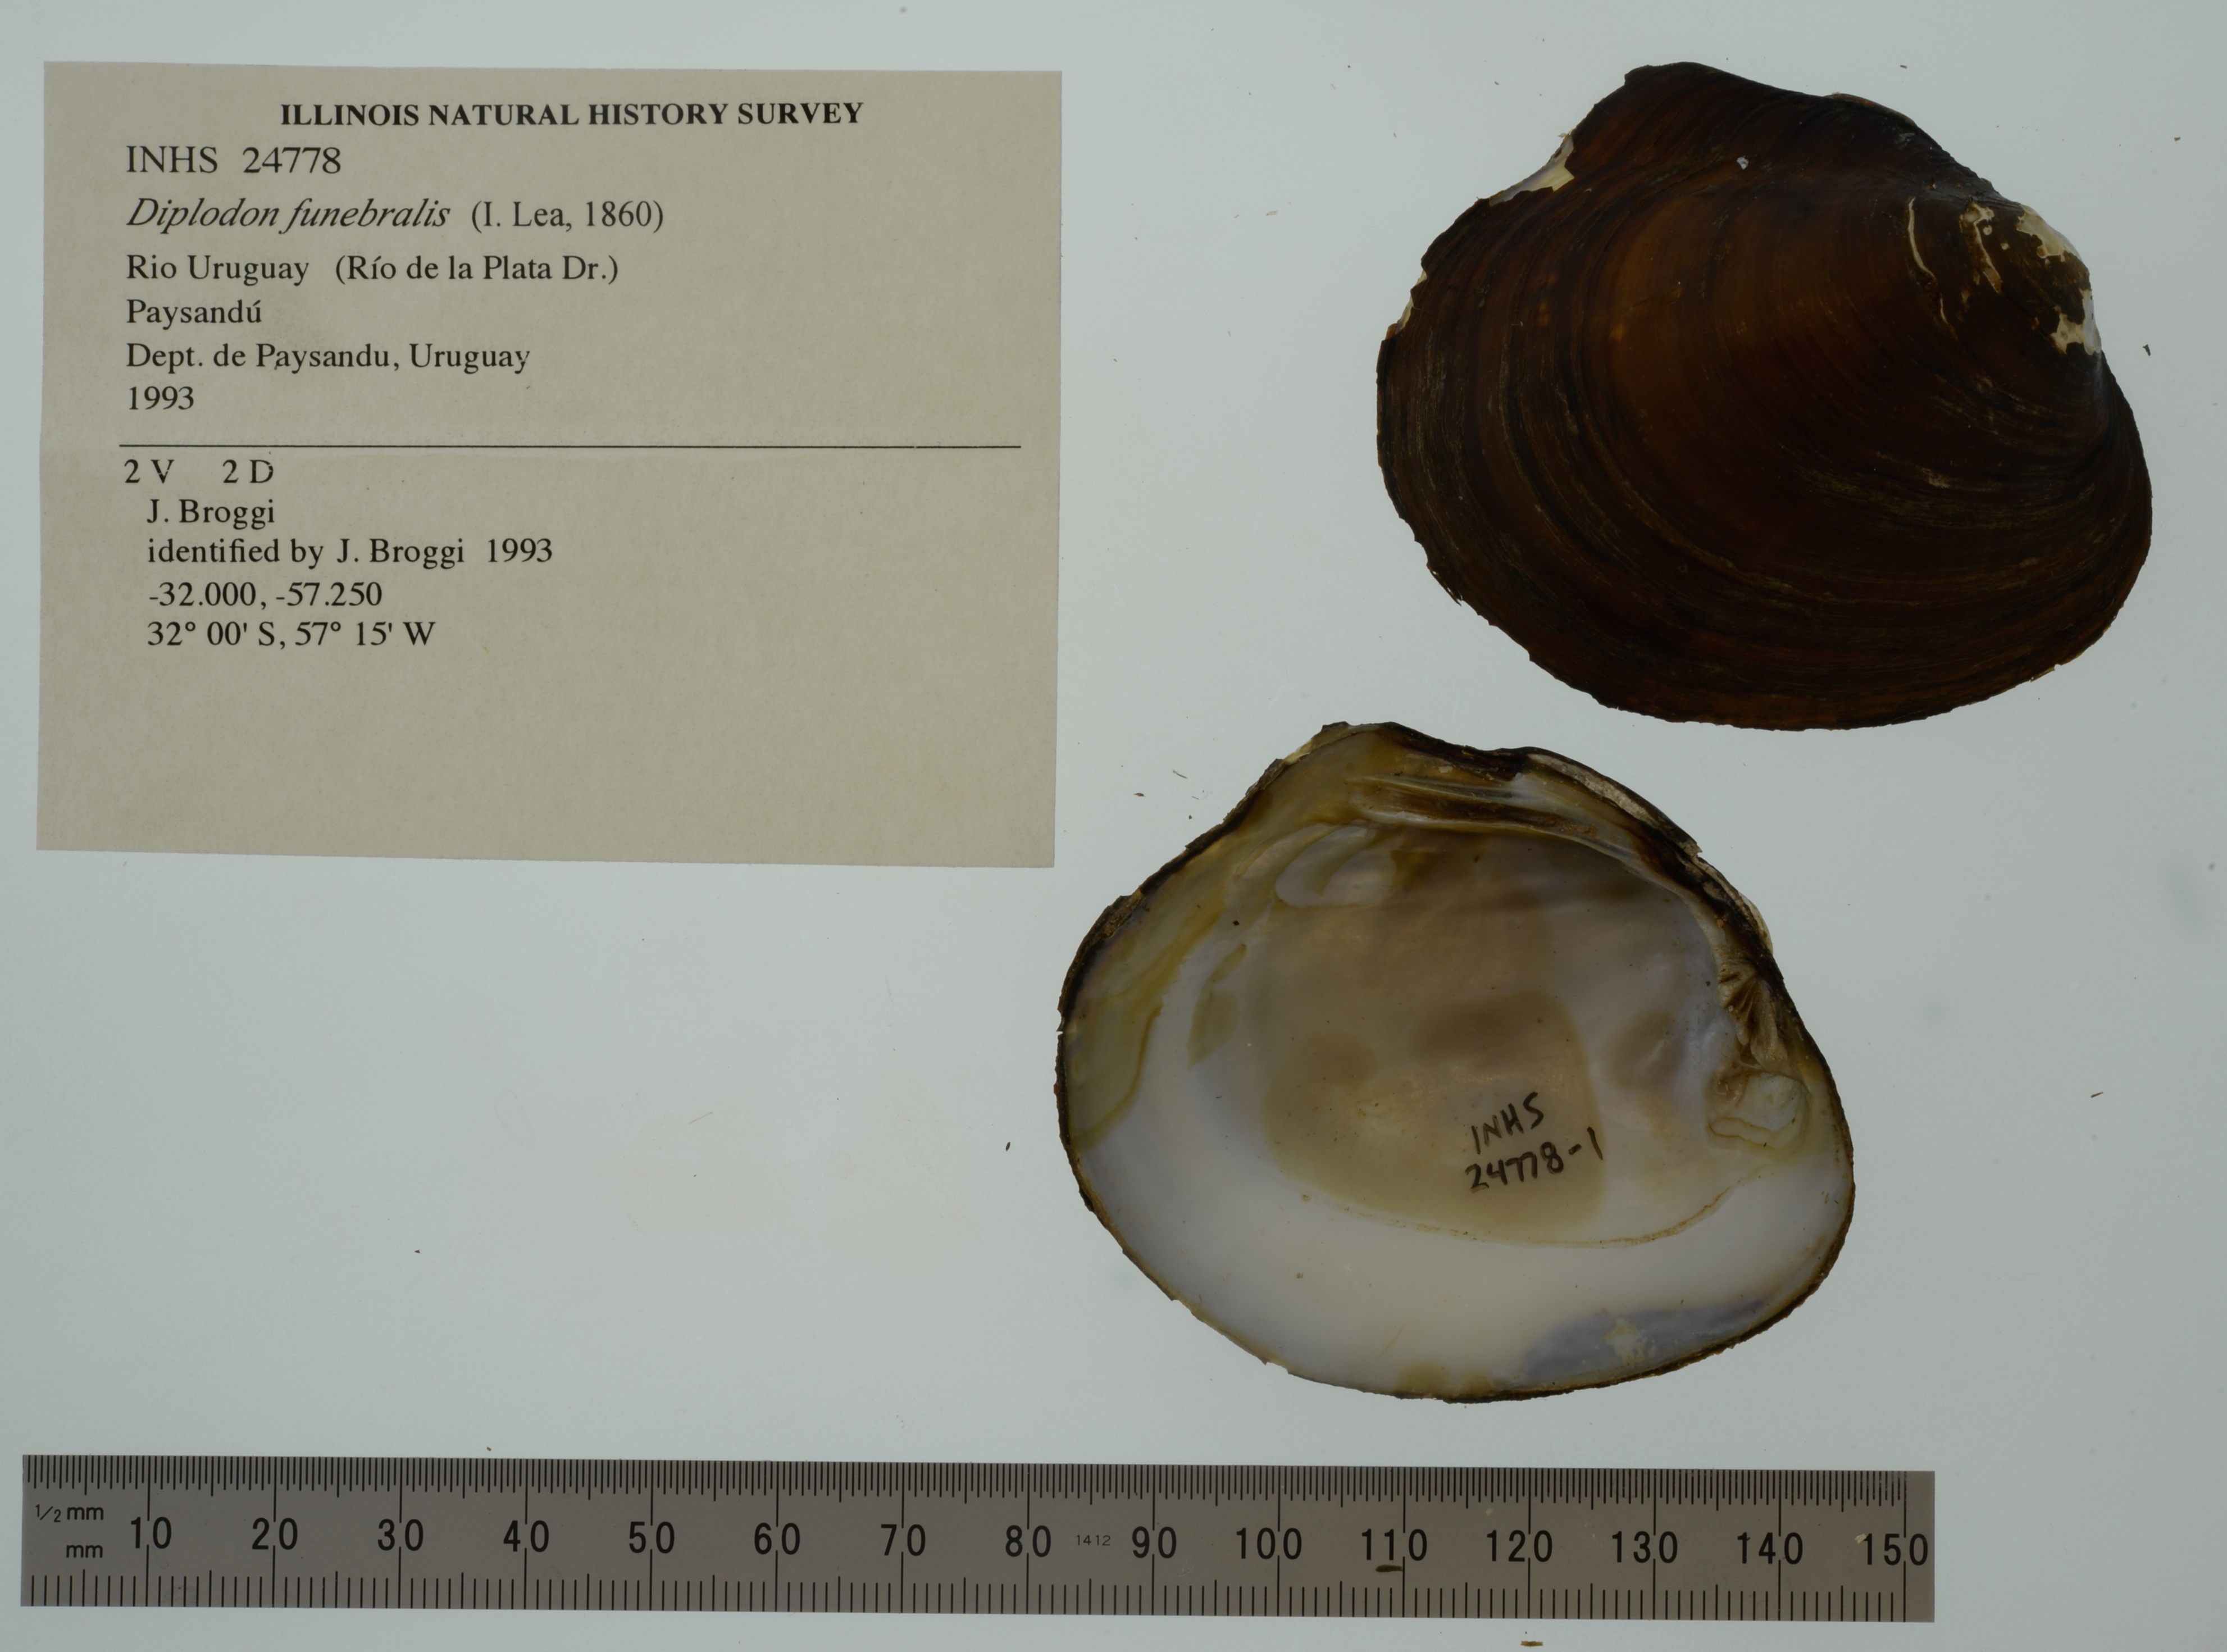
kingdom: Animalia
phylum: Mollusca
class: Bivalvia
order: Unionida
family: Hyriidae
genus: Rhipidodonta
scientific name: Rhipidodonta funebralis
